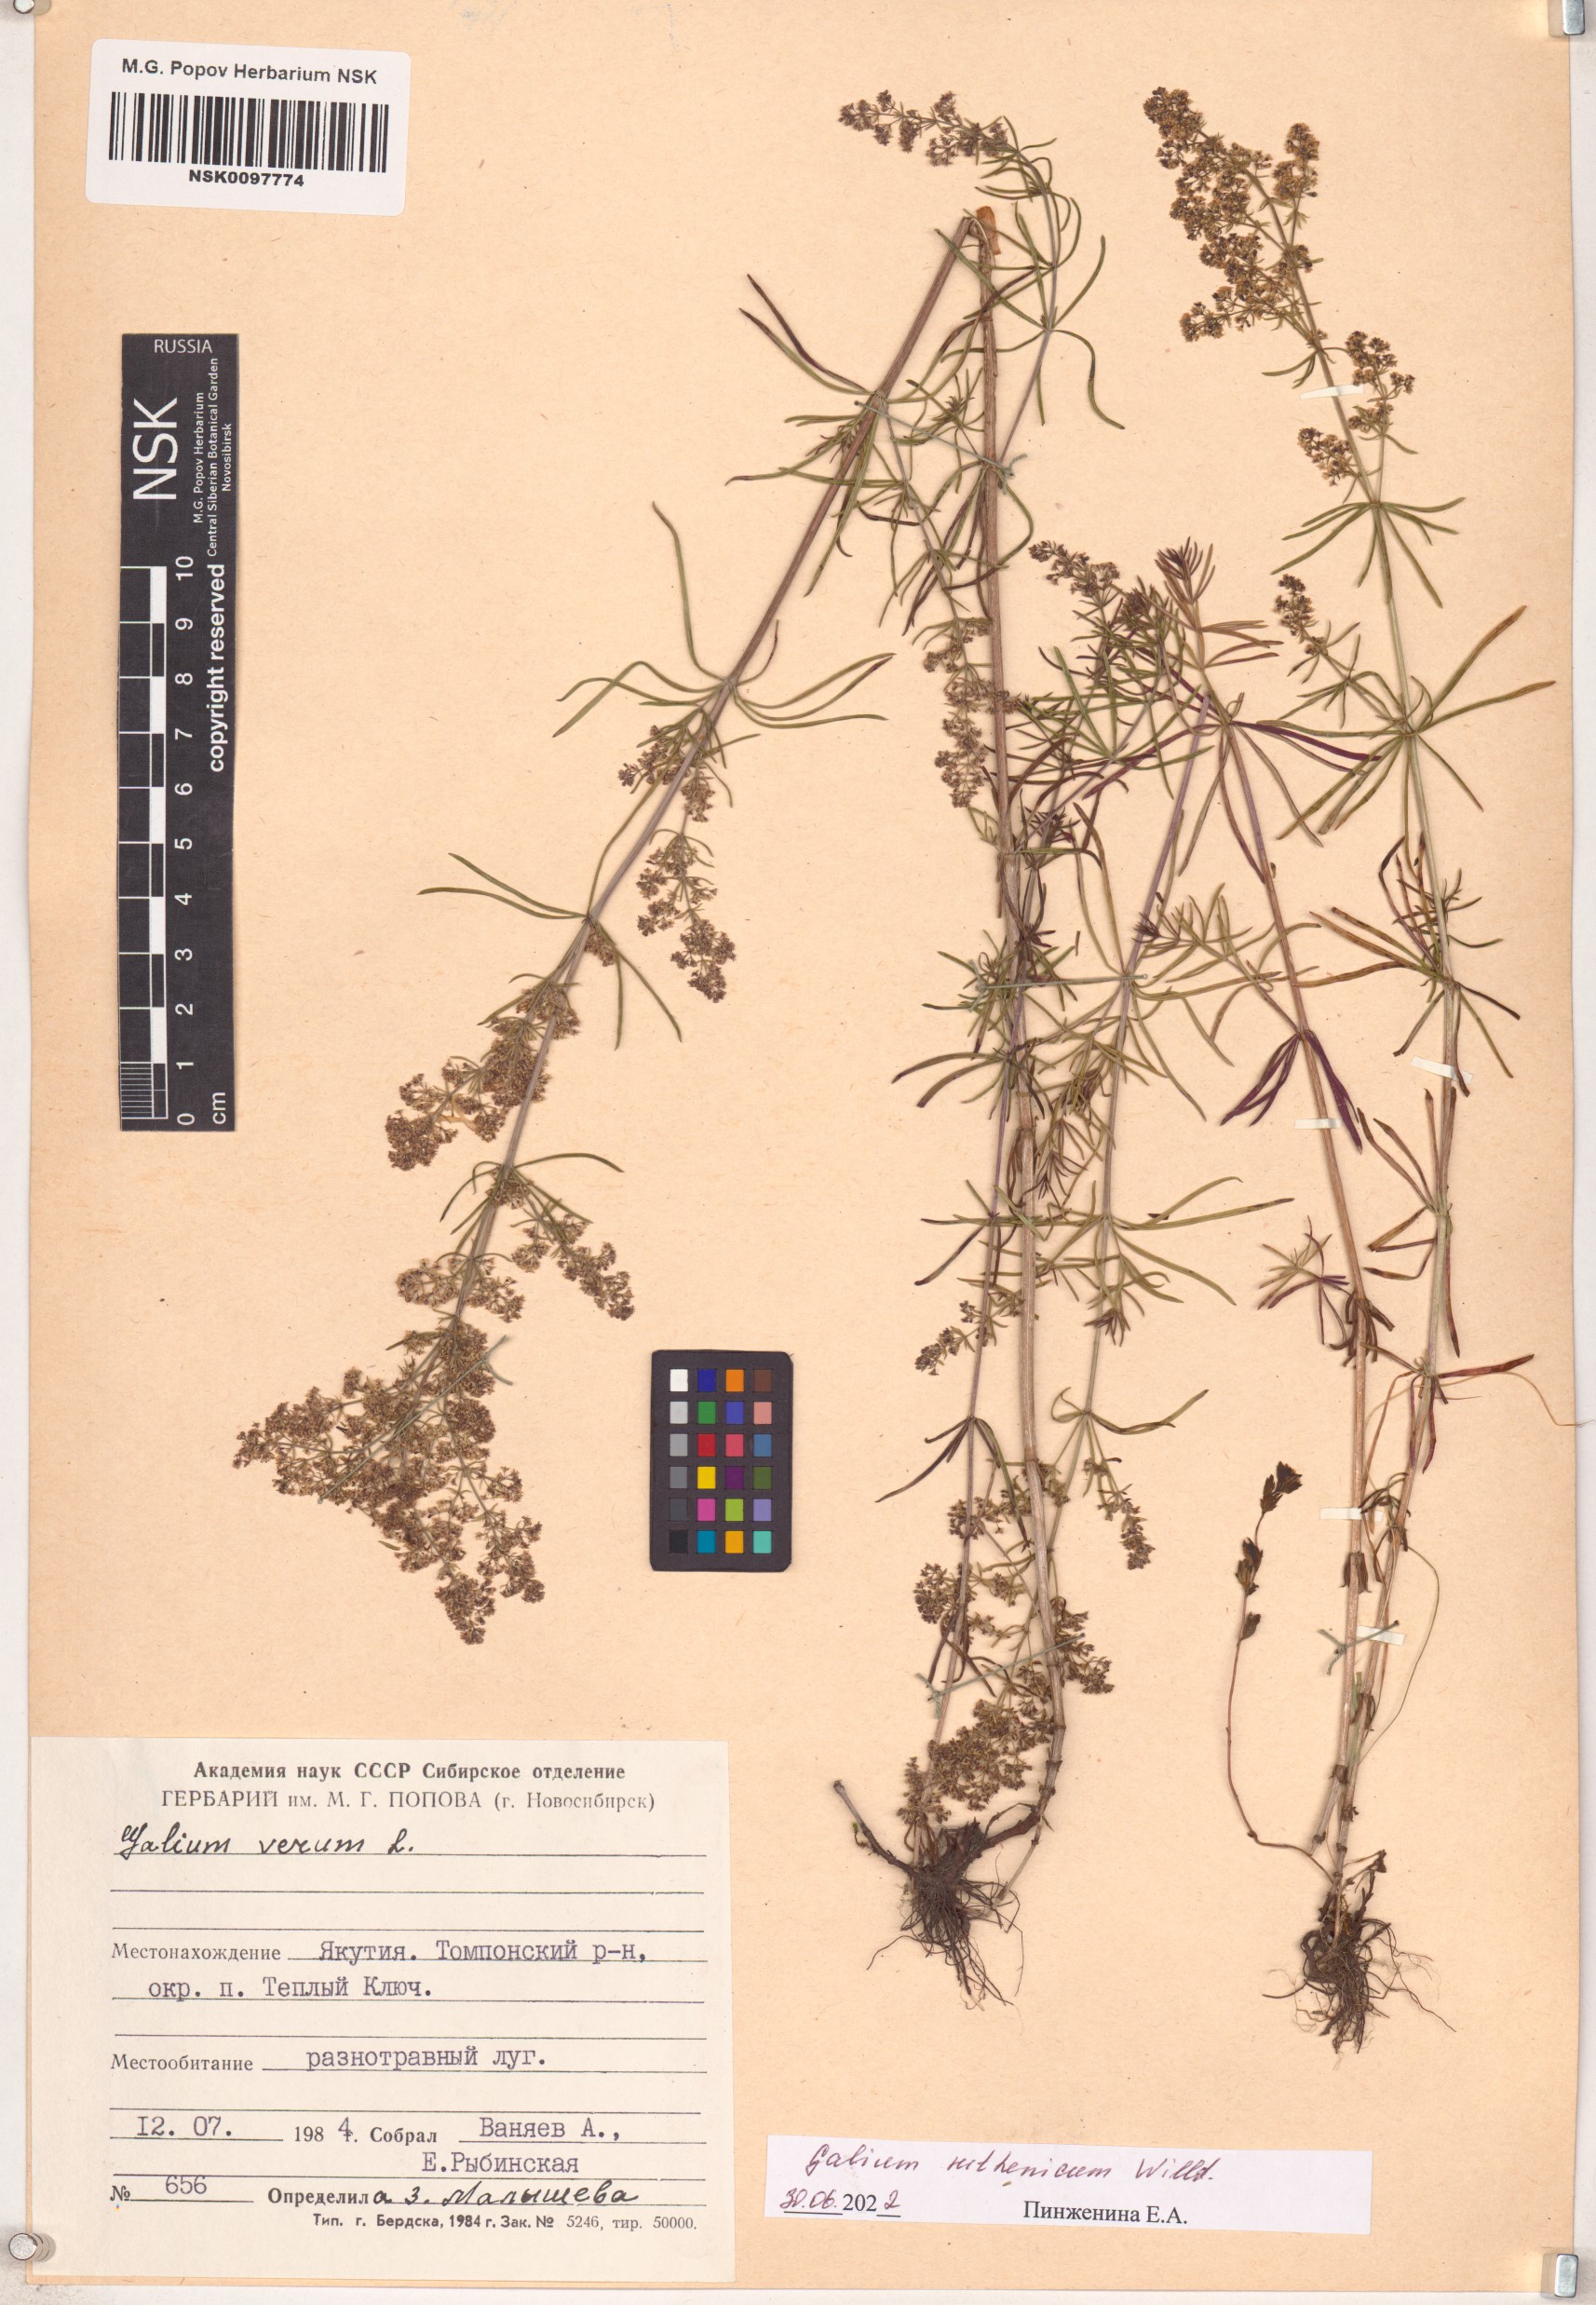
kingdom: Plantae
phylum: Tracheophyta
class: Magnoliopsida
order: Gentianales
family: Rubiaceae
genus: Galium
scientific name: Galium verum
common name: Lady's bedstraw
